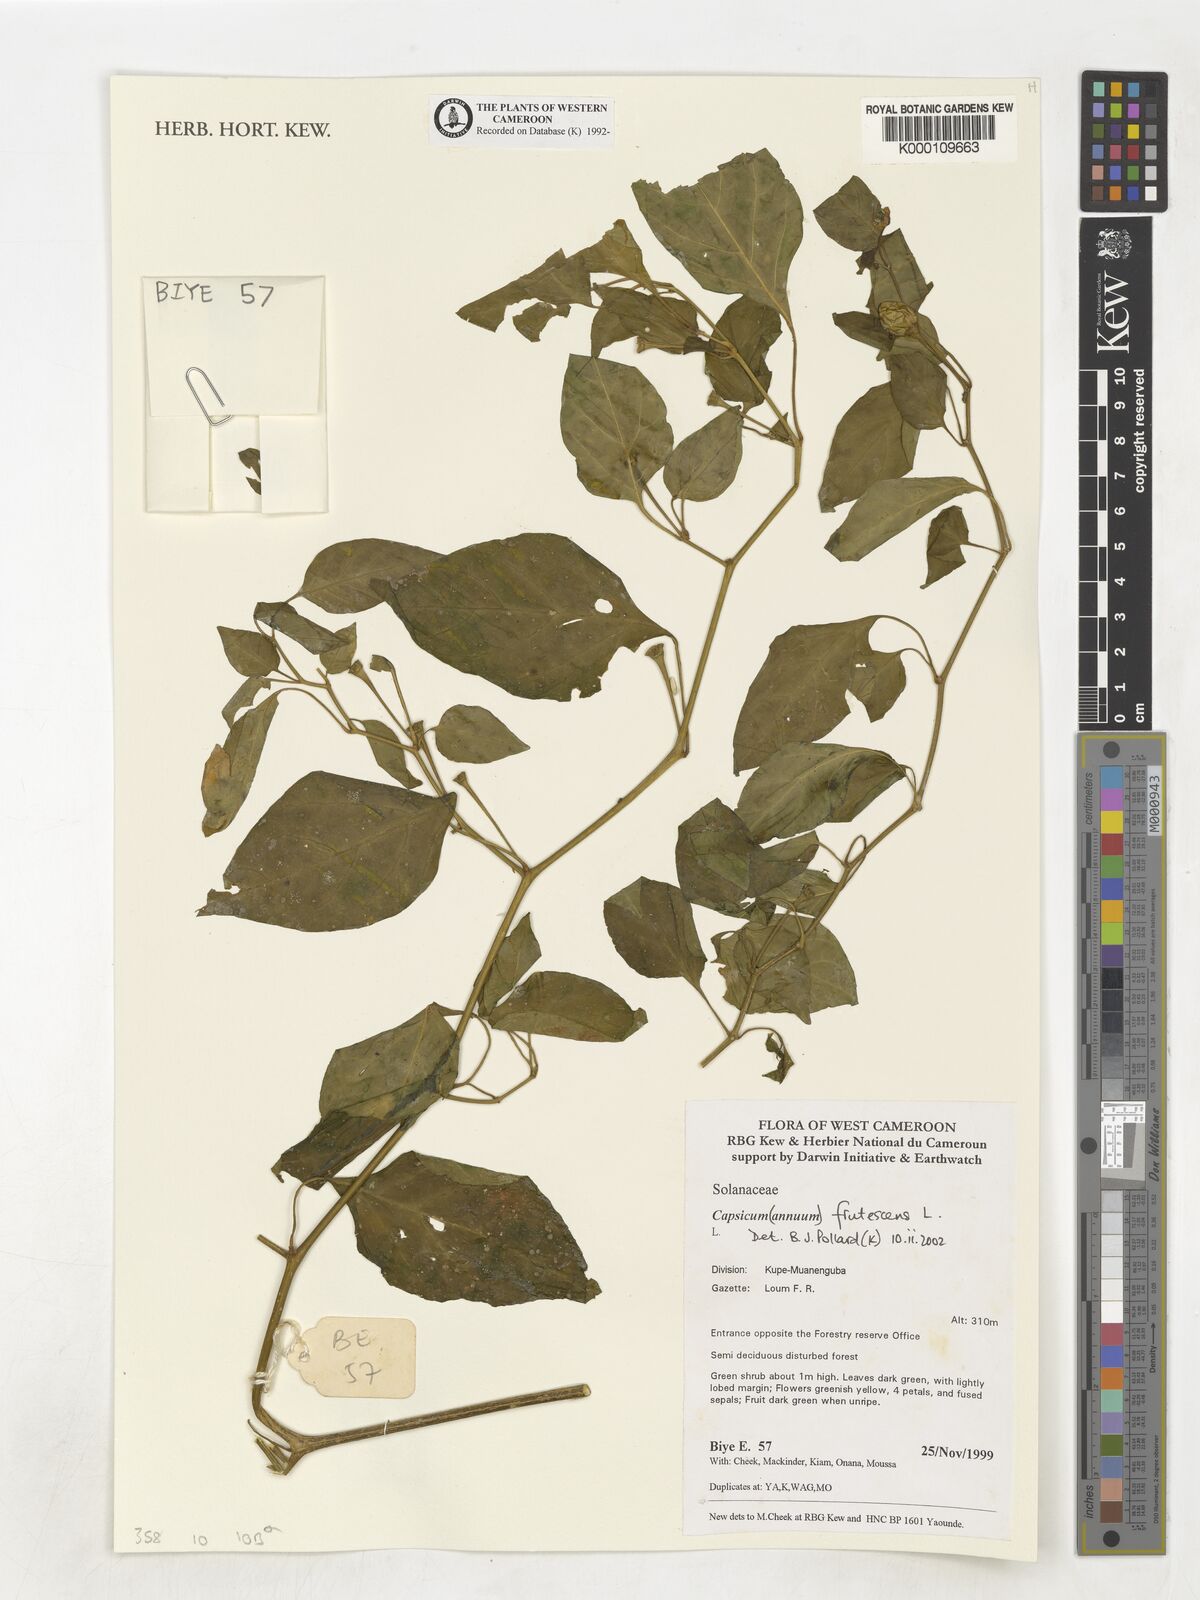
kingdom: Plantae
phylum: Tracheophyta
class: Magnoliopsida
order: Solanales
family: Solanaceae
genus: Capsicum
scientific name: Capsicum frutescens
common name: Bird pepper
